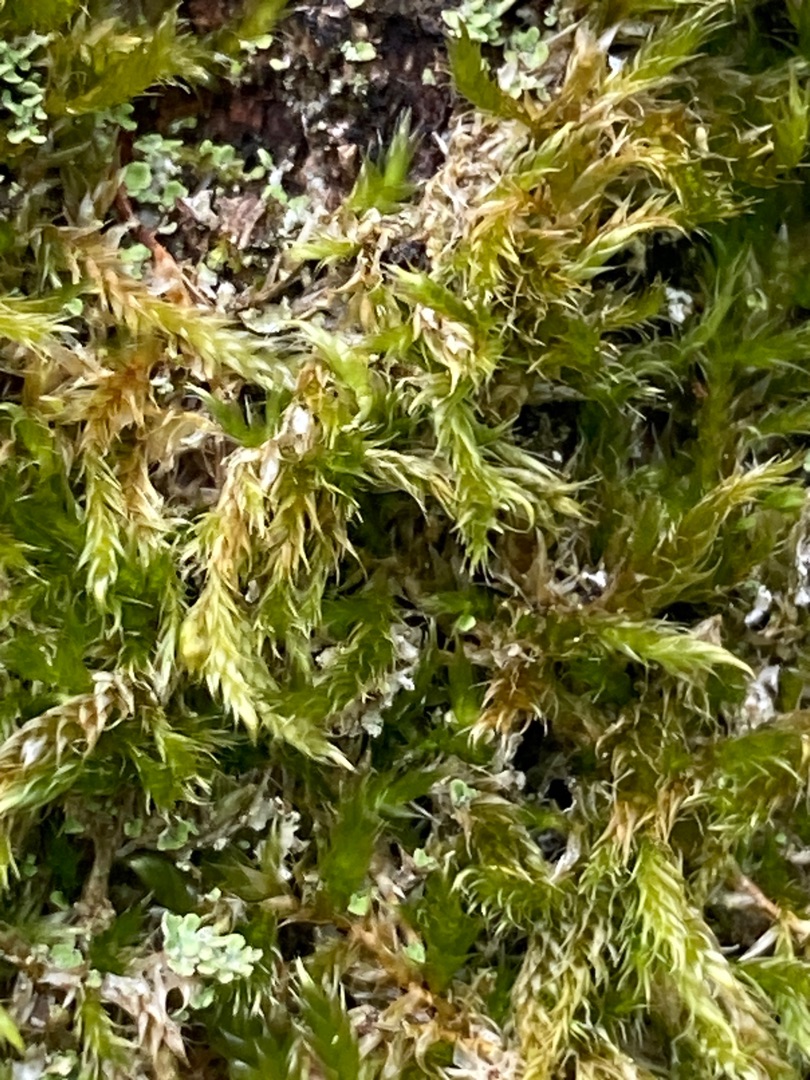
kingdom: Plantae
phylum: Bryophyta
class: Bryopsida
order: Hypnales
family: Hypnaceae
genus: Hypnum
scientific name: Hypnum cupressiforme
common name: Almindelig cypresmos
